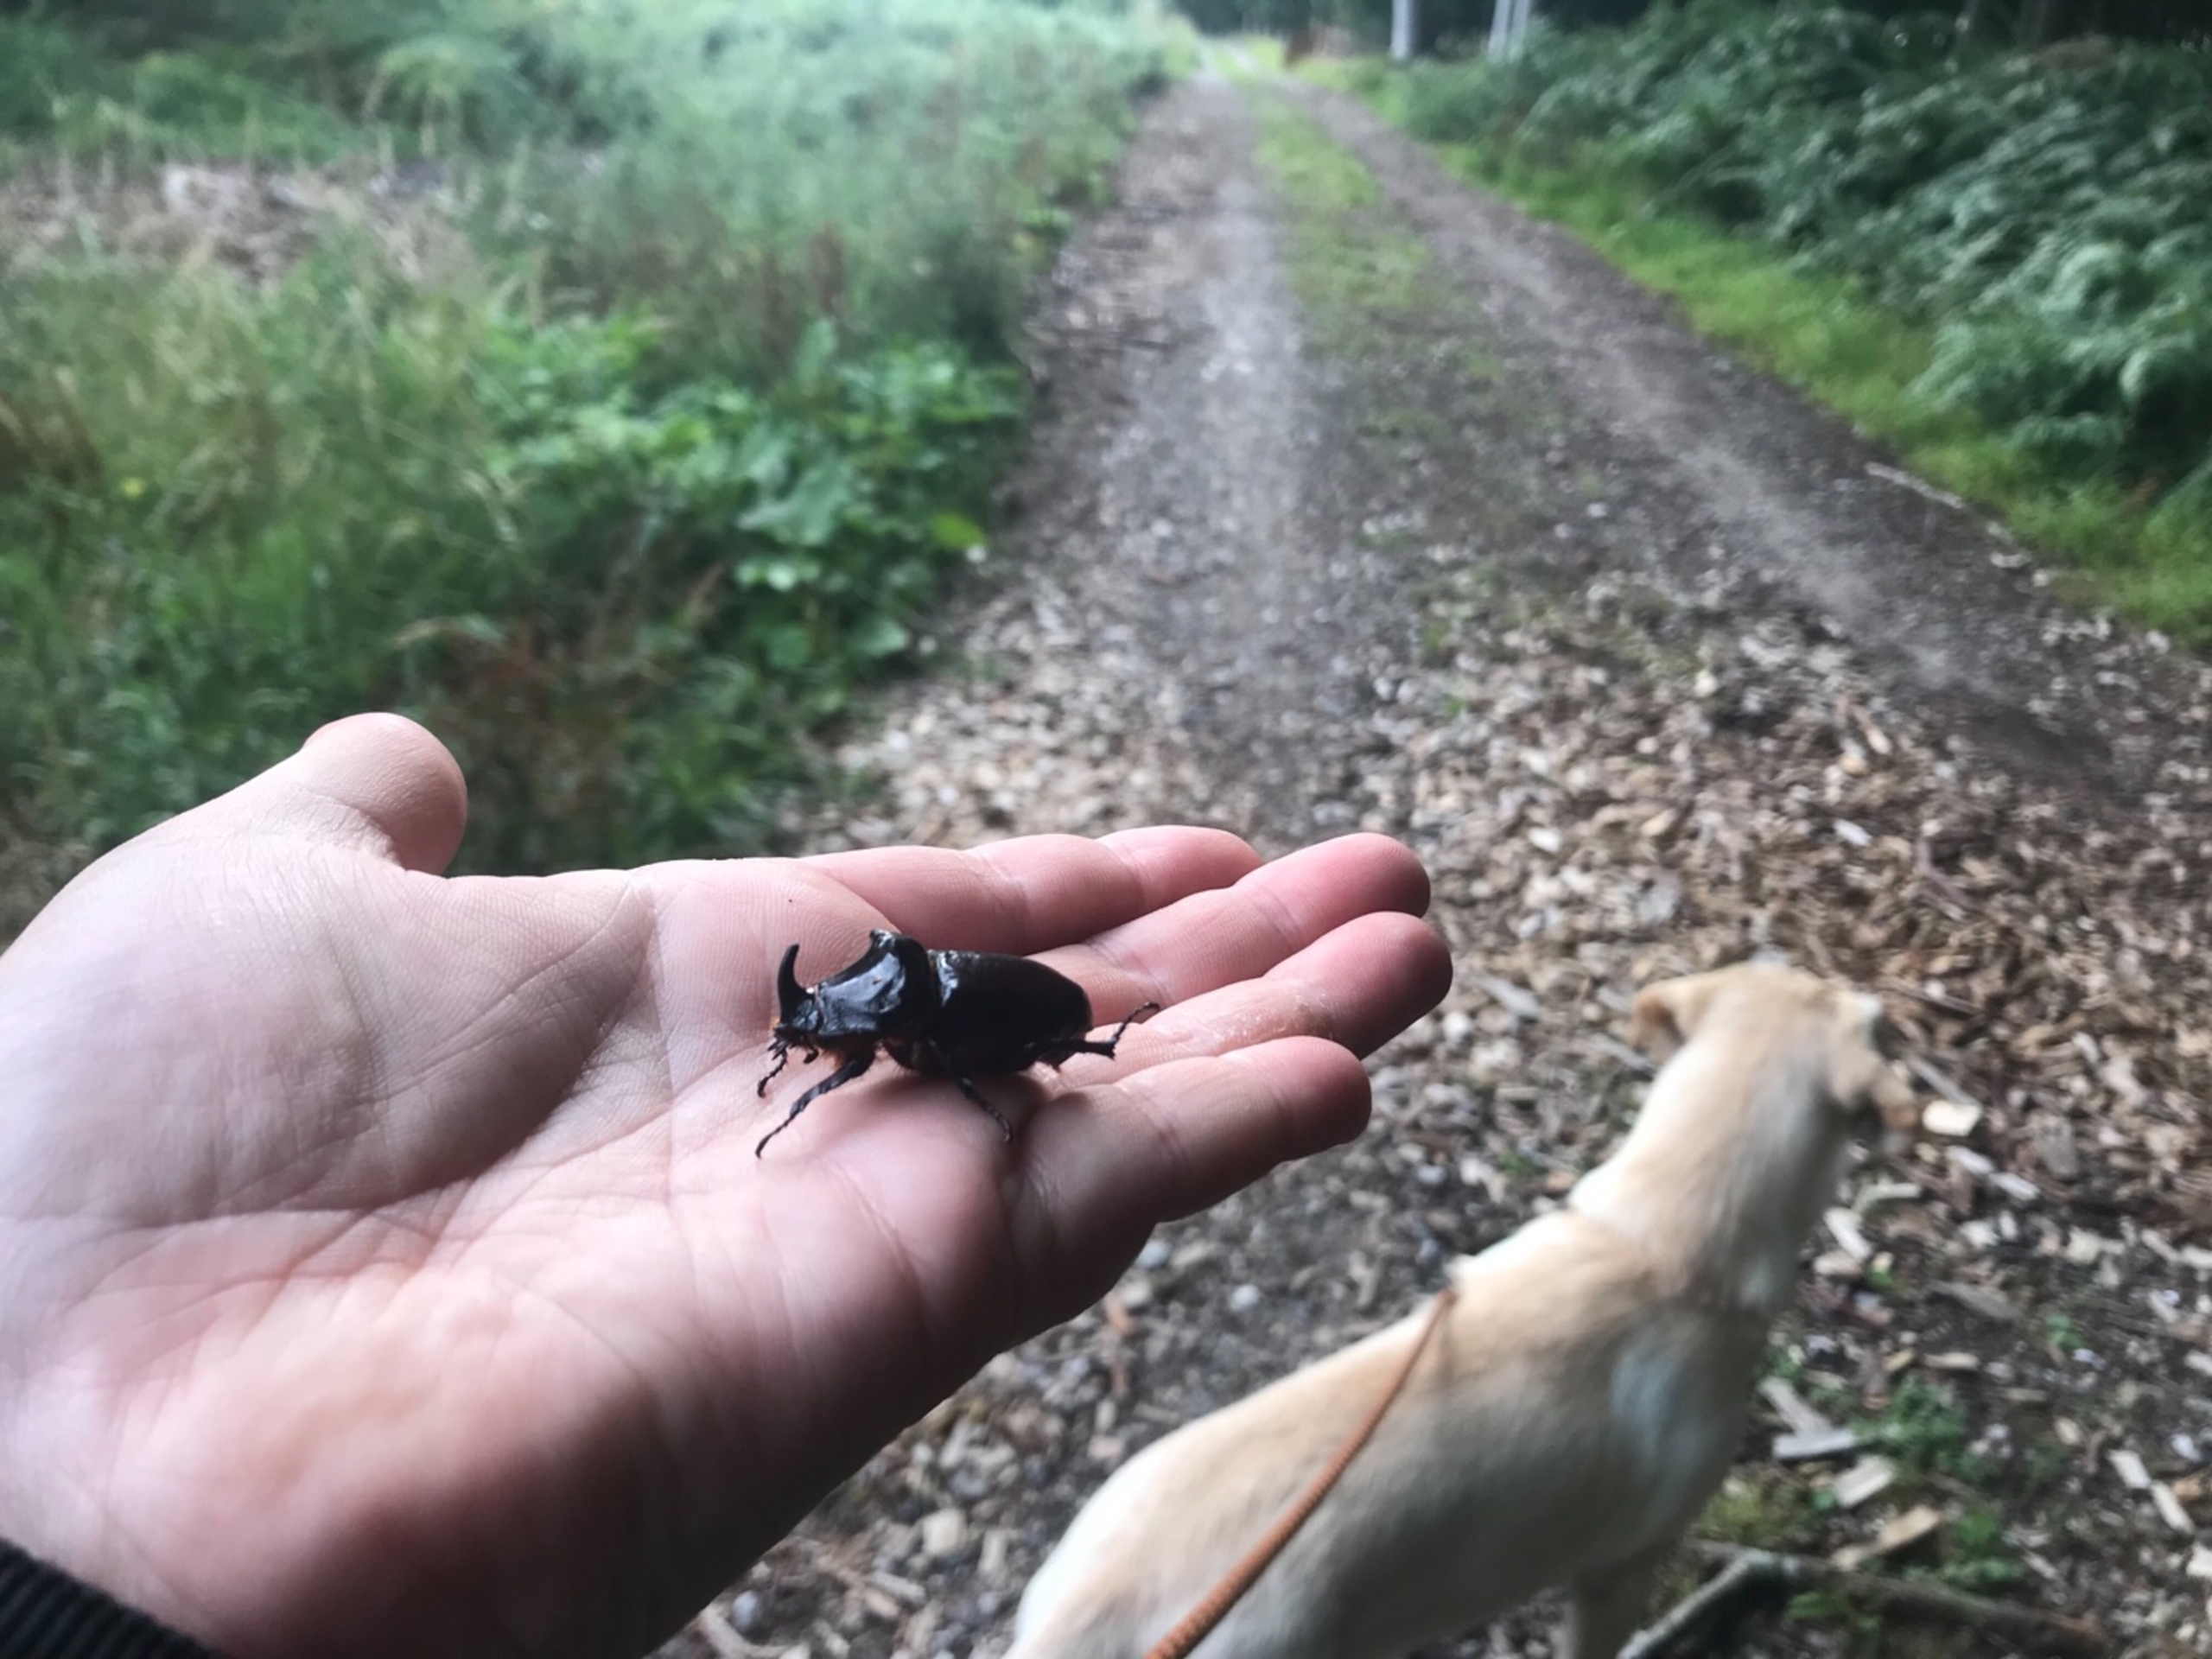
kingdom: Animalia
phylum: Arthropoda
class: Insecta
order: Coleoptera
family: Scarabaeidae
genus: Oryctes
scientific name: Oryctes nasicornis
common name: Næsehornsbille
